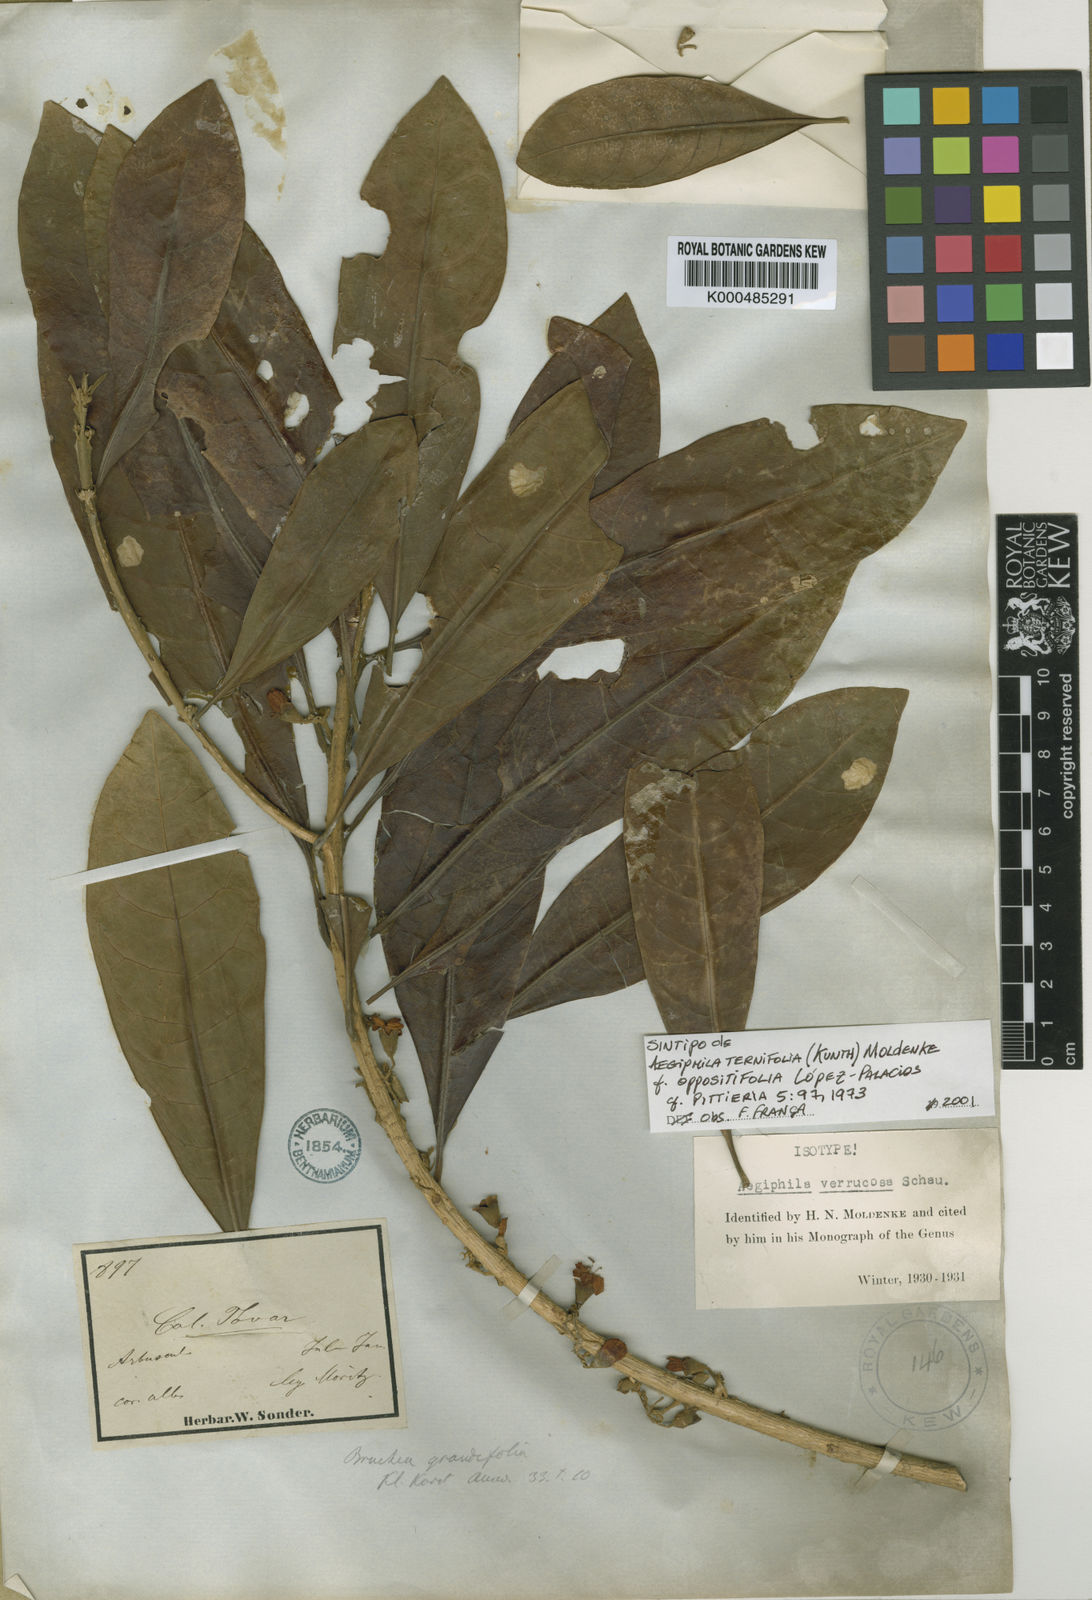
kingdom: Plantae
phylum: Tracheophyta
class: Magnoliopsida
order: Lamiales
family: Lamiaceae
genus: Aegiphila
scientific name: Aegiphila ternifolia
